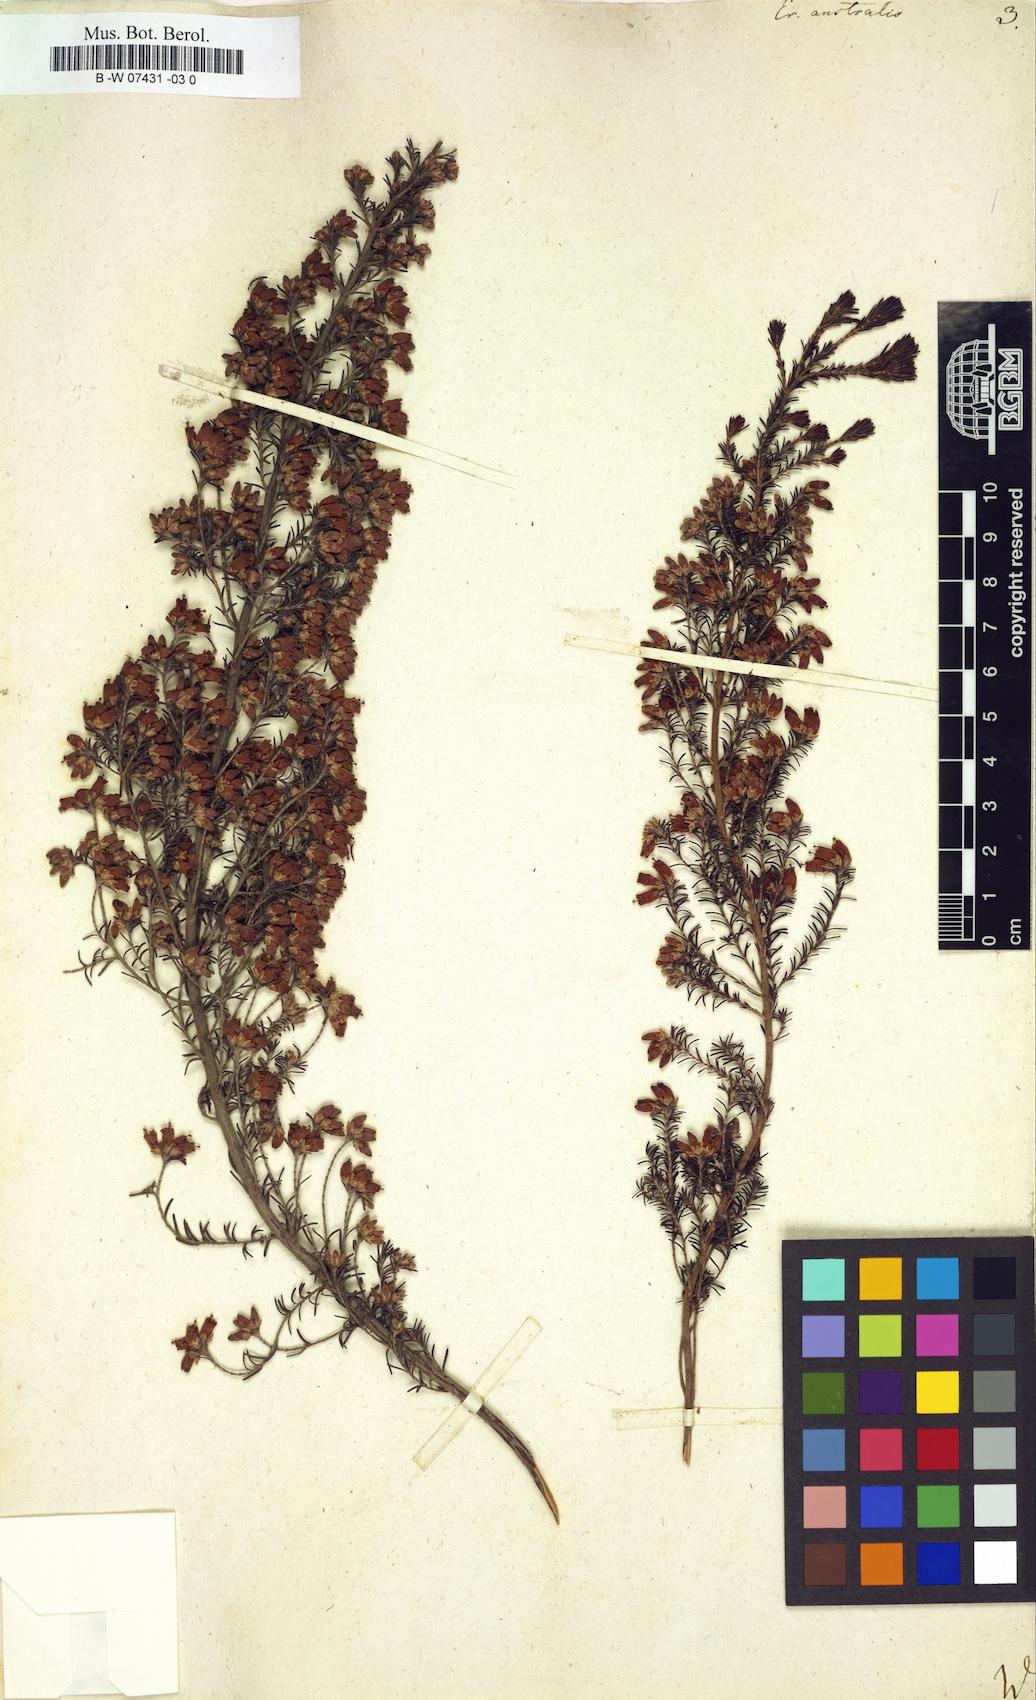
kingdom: Plantae
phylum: Tracheophyta
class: Magnoliopsida
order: Ericales
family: Ericaceae
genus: Erica
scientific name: Erica australis
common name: Spanish heath
